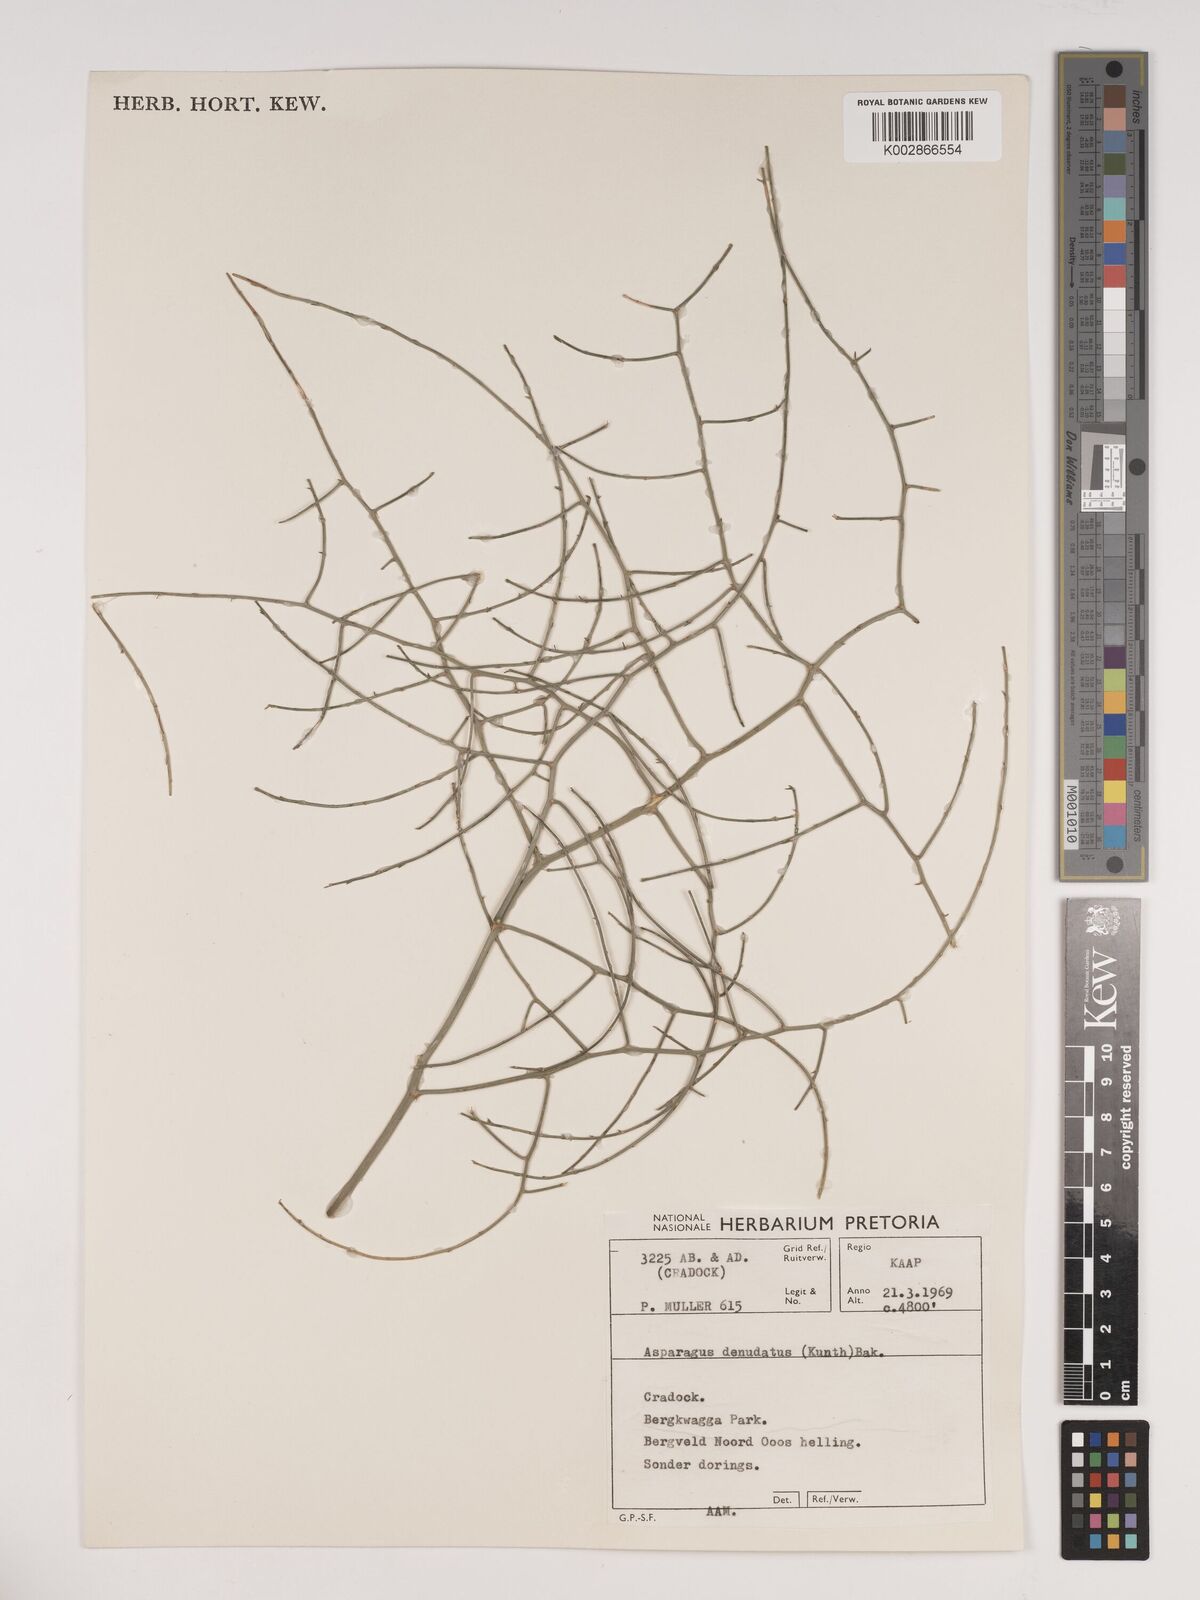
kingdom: Plantae
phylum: Tracheophyta
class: Liliopsida
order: Asparagales
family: Asparagaceae
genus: Asparagus
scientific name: Asparagus denudatus
